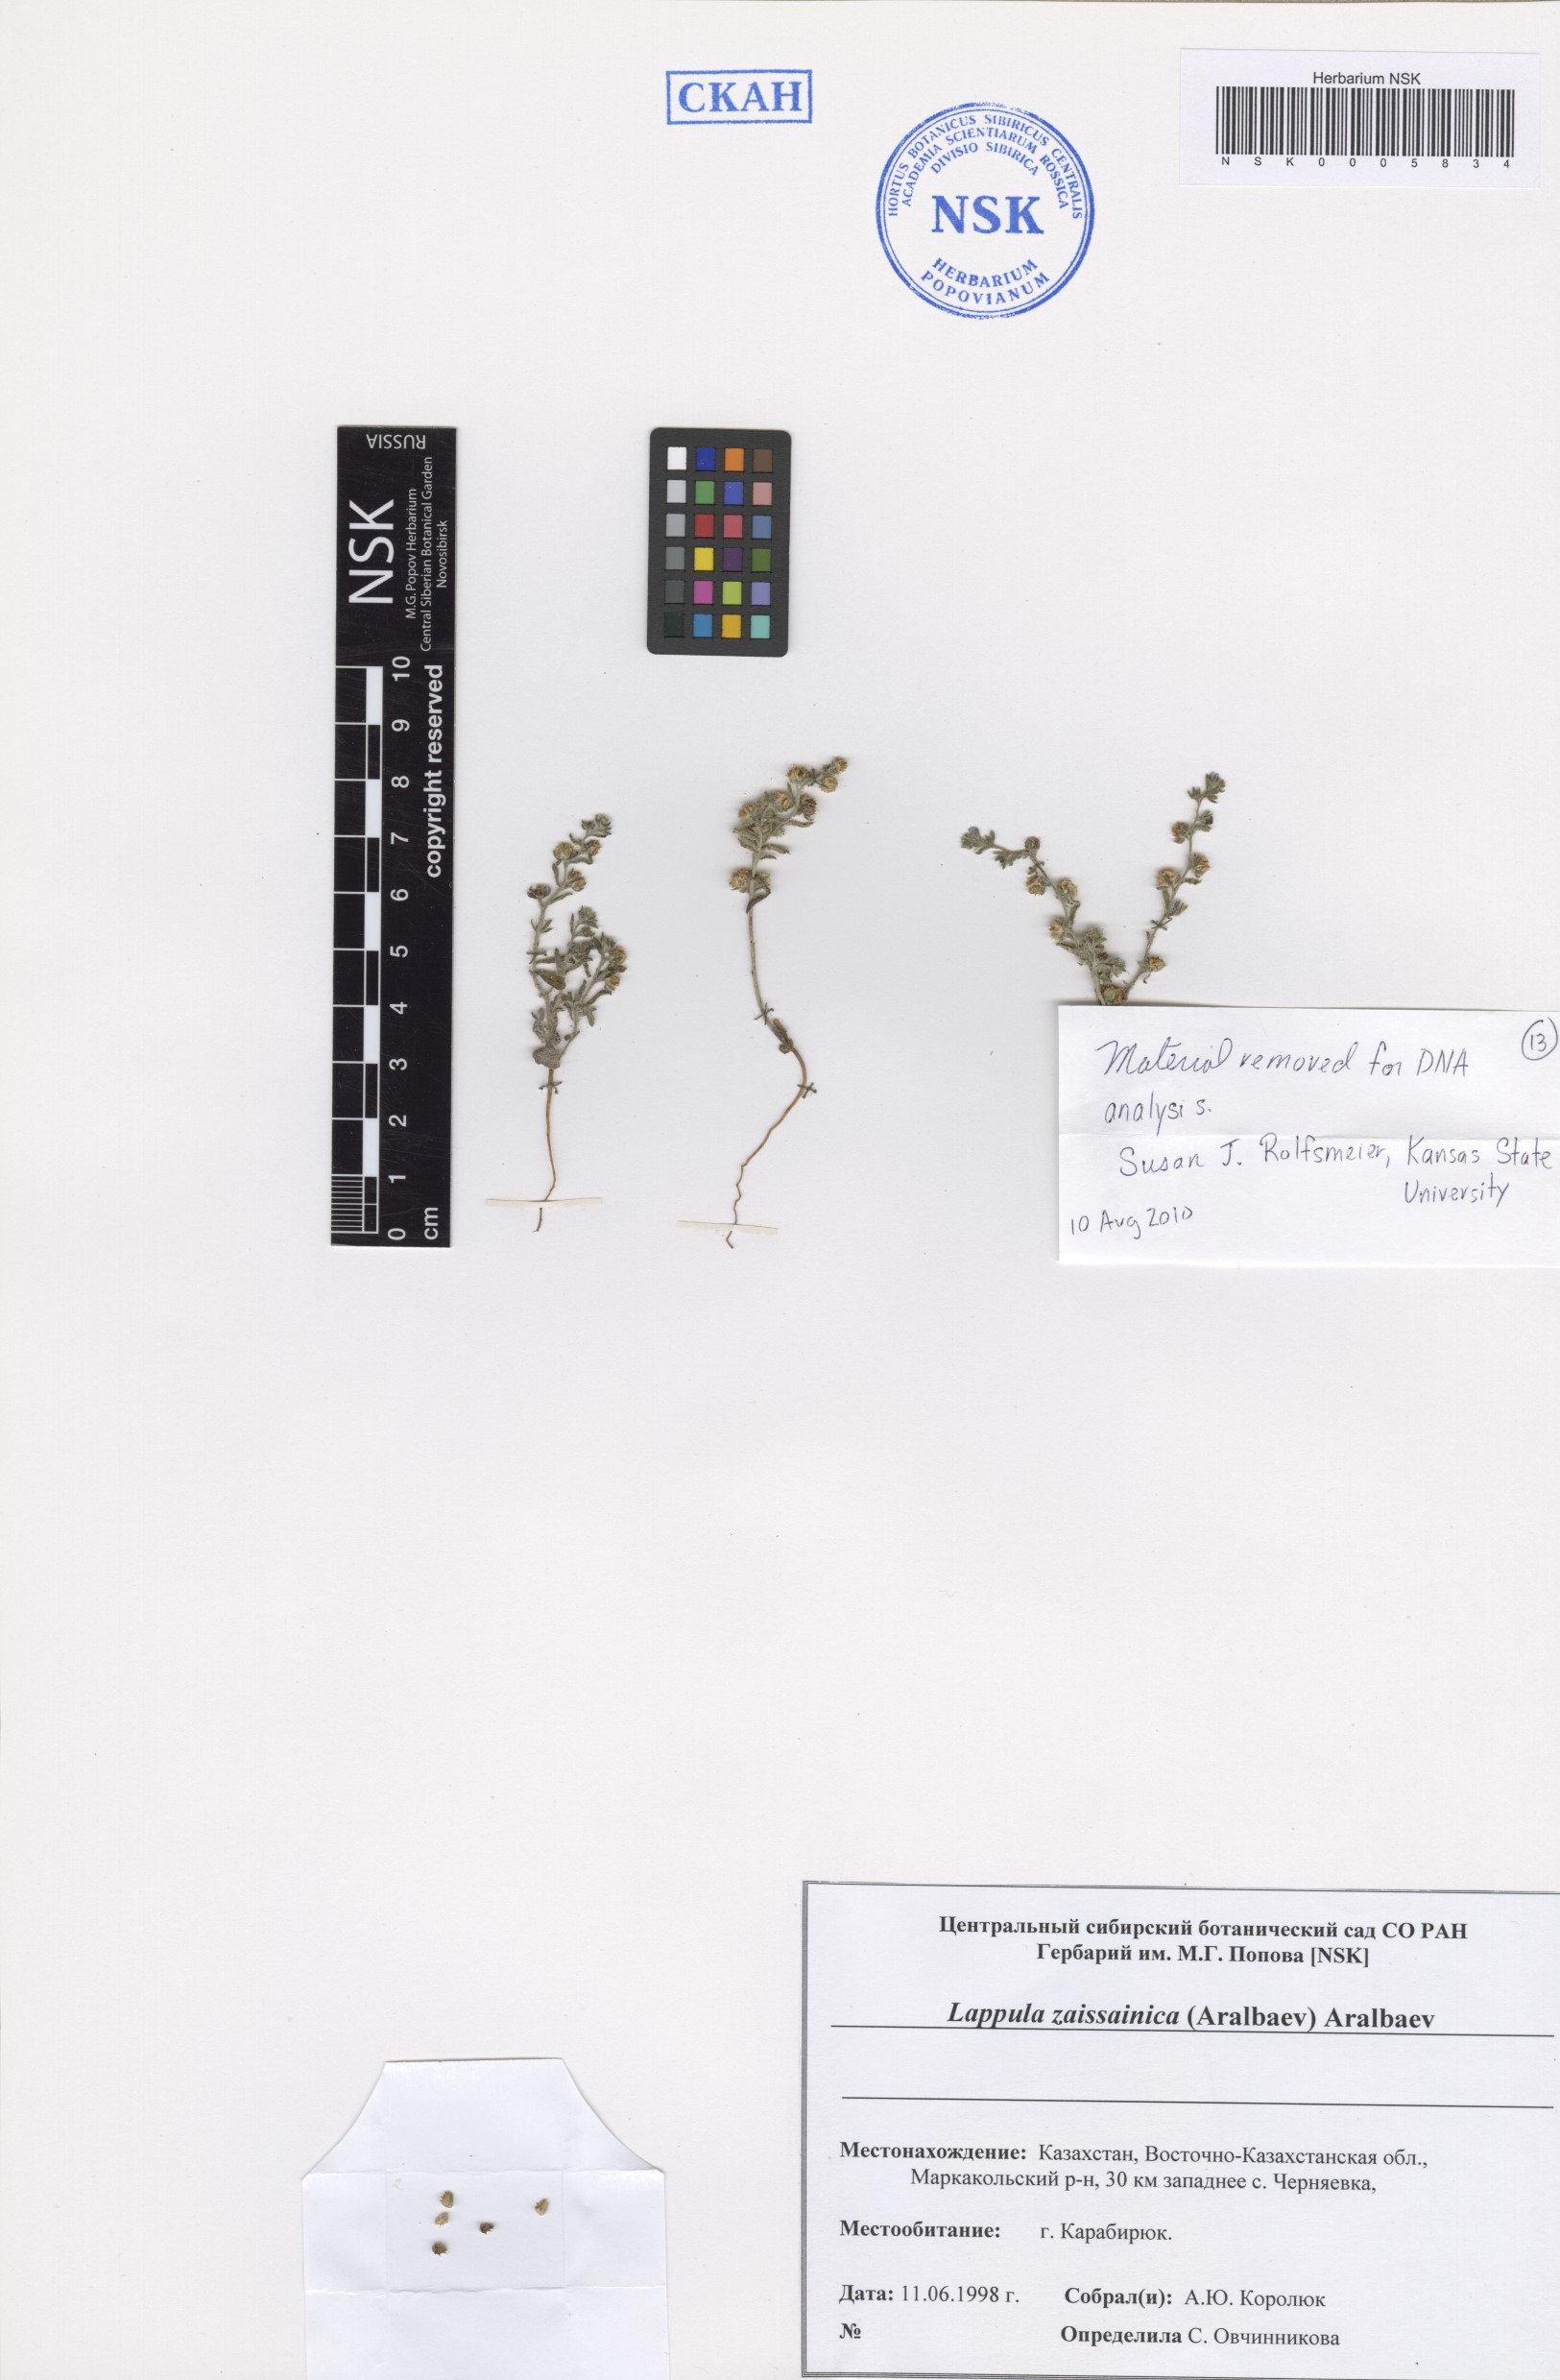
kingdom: Plantae
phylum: Tracheophyta
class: Magnoliopsida
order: Boraginales
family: Boraginaceae
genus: Lappula
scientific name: Lappula zaissanica
